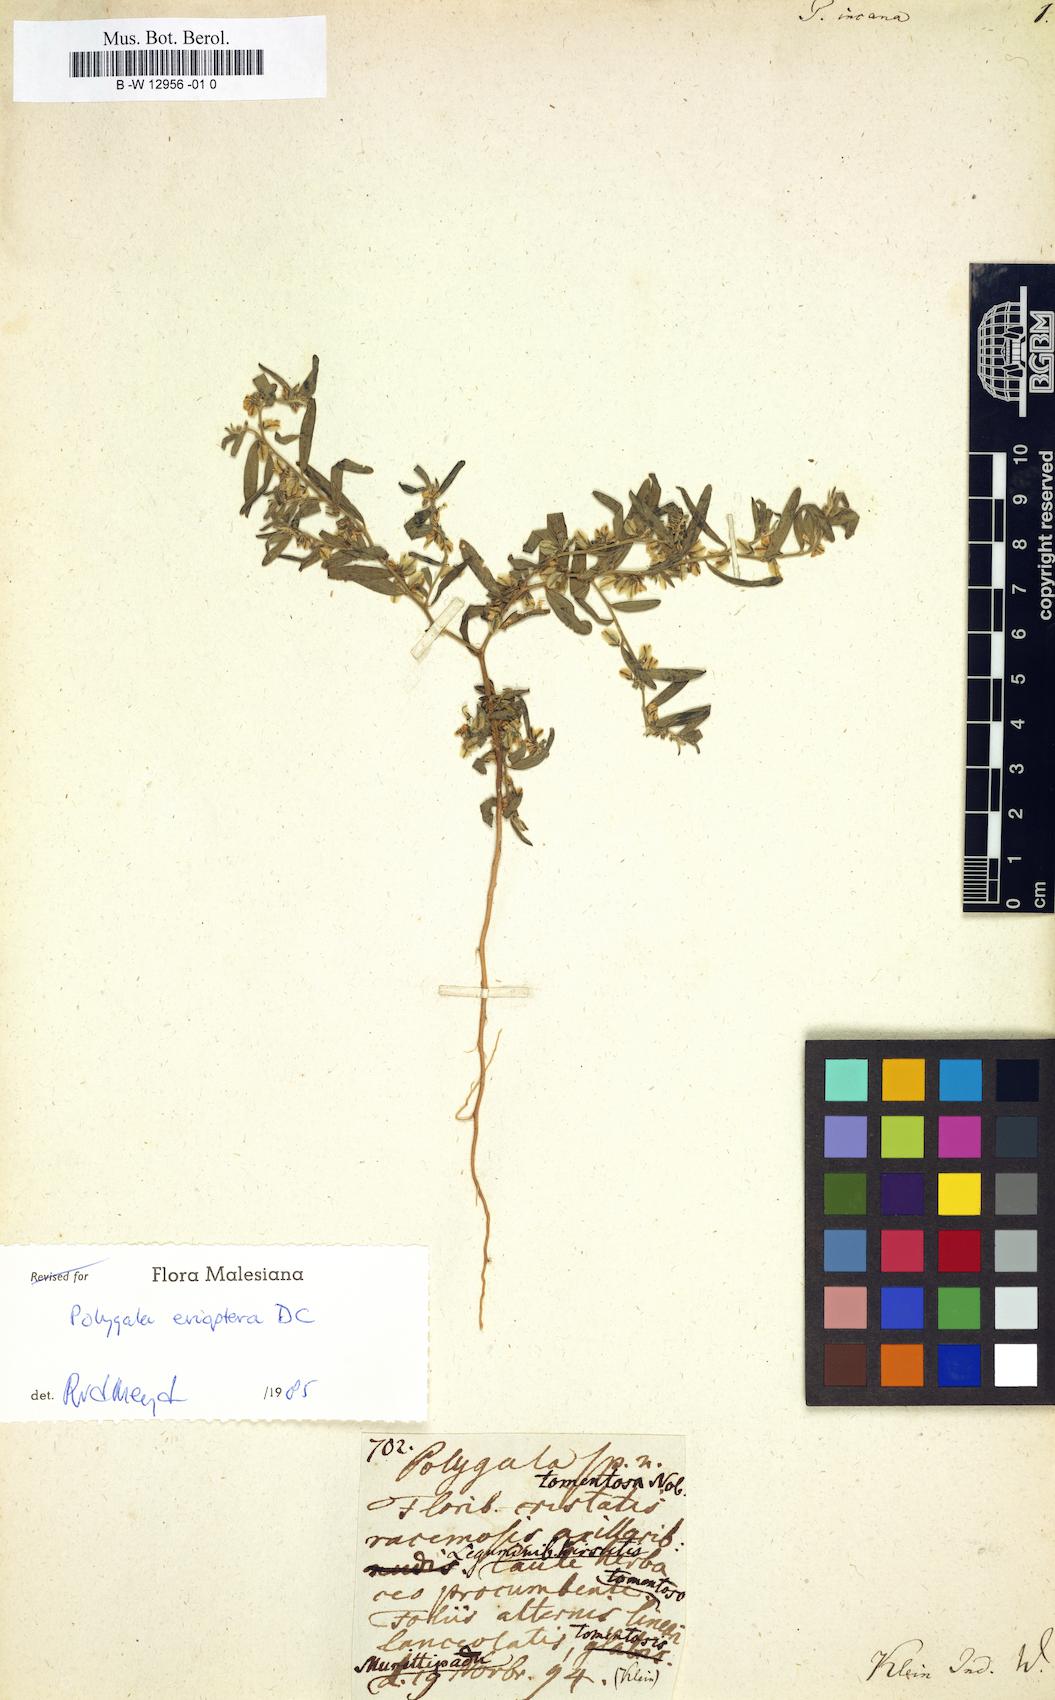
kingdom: Plantae
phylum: Tracheophyta
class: Magnoliopsida
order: Fabales
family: Polygalaceae
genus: Polygala
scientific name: Polygala
